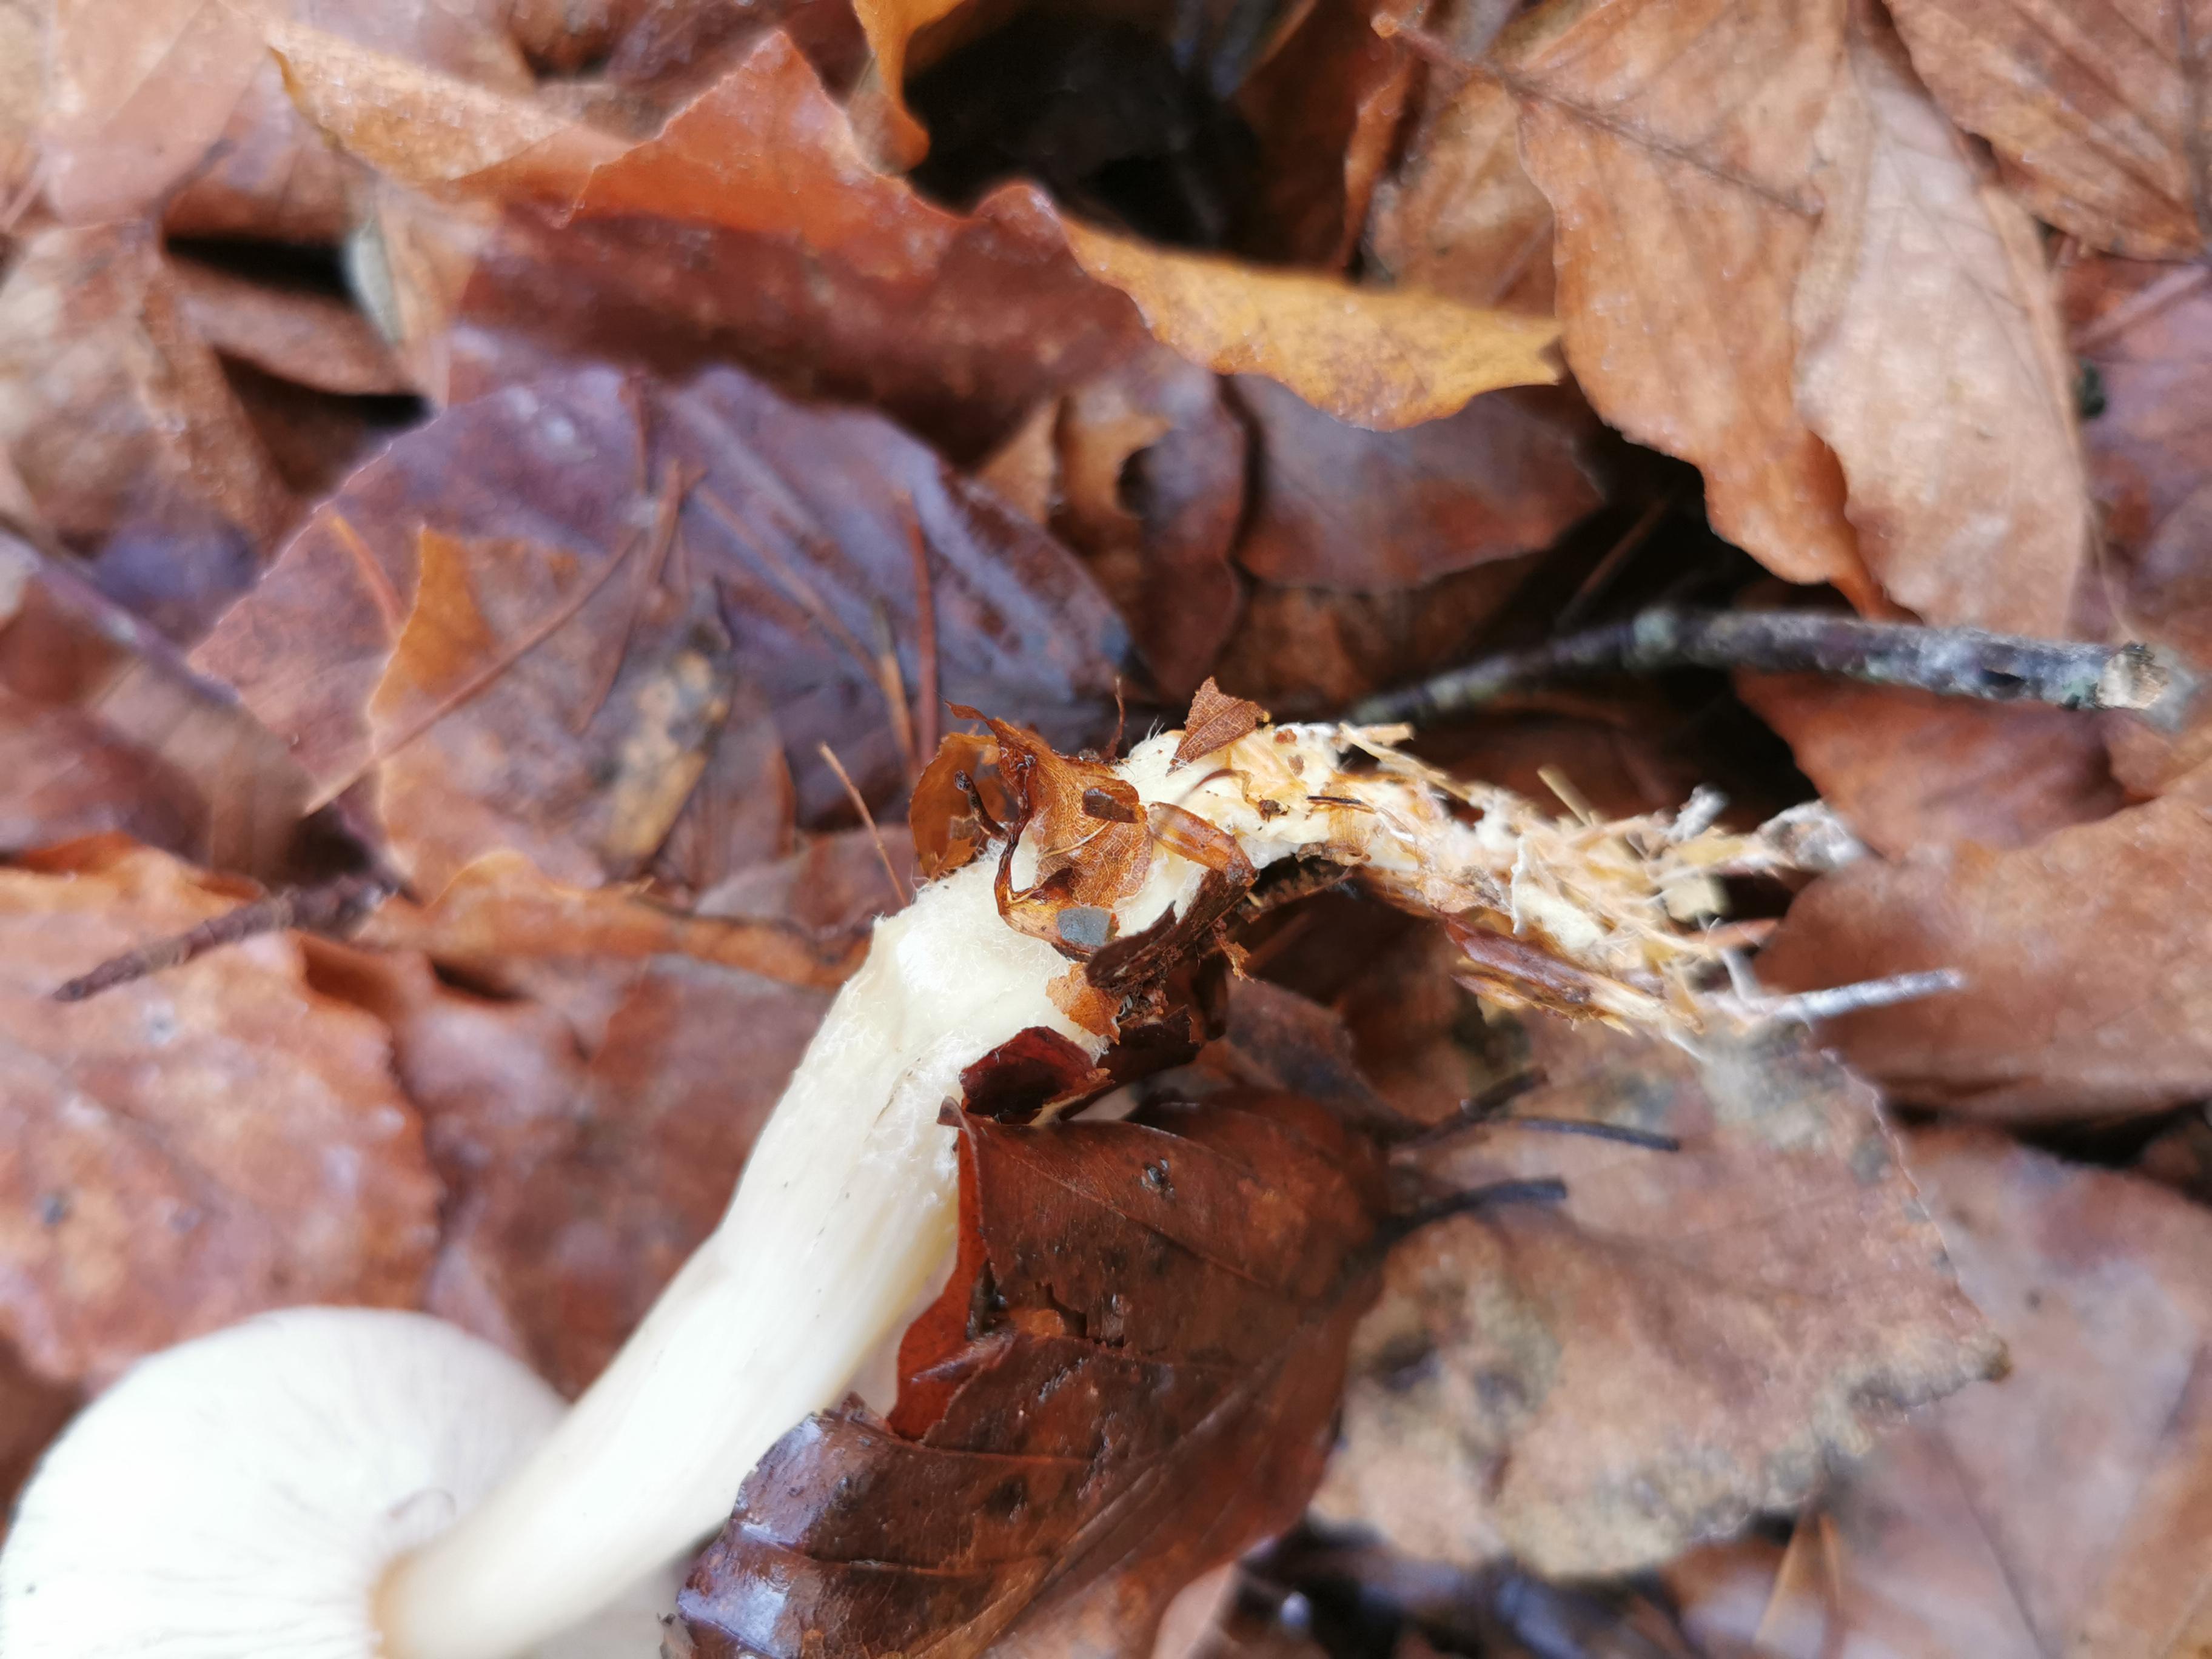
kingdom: Fungi
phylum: Basidiomycota
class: Agaricomycetes
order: Agaricales
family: Omphalotaceae
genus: Rhodocollybia
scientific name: Rhodocollybia asema
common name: horngrå fladhat
